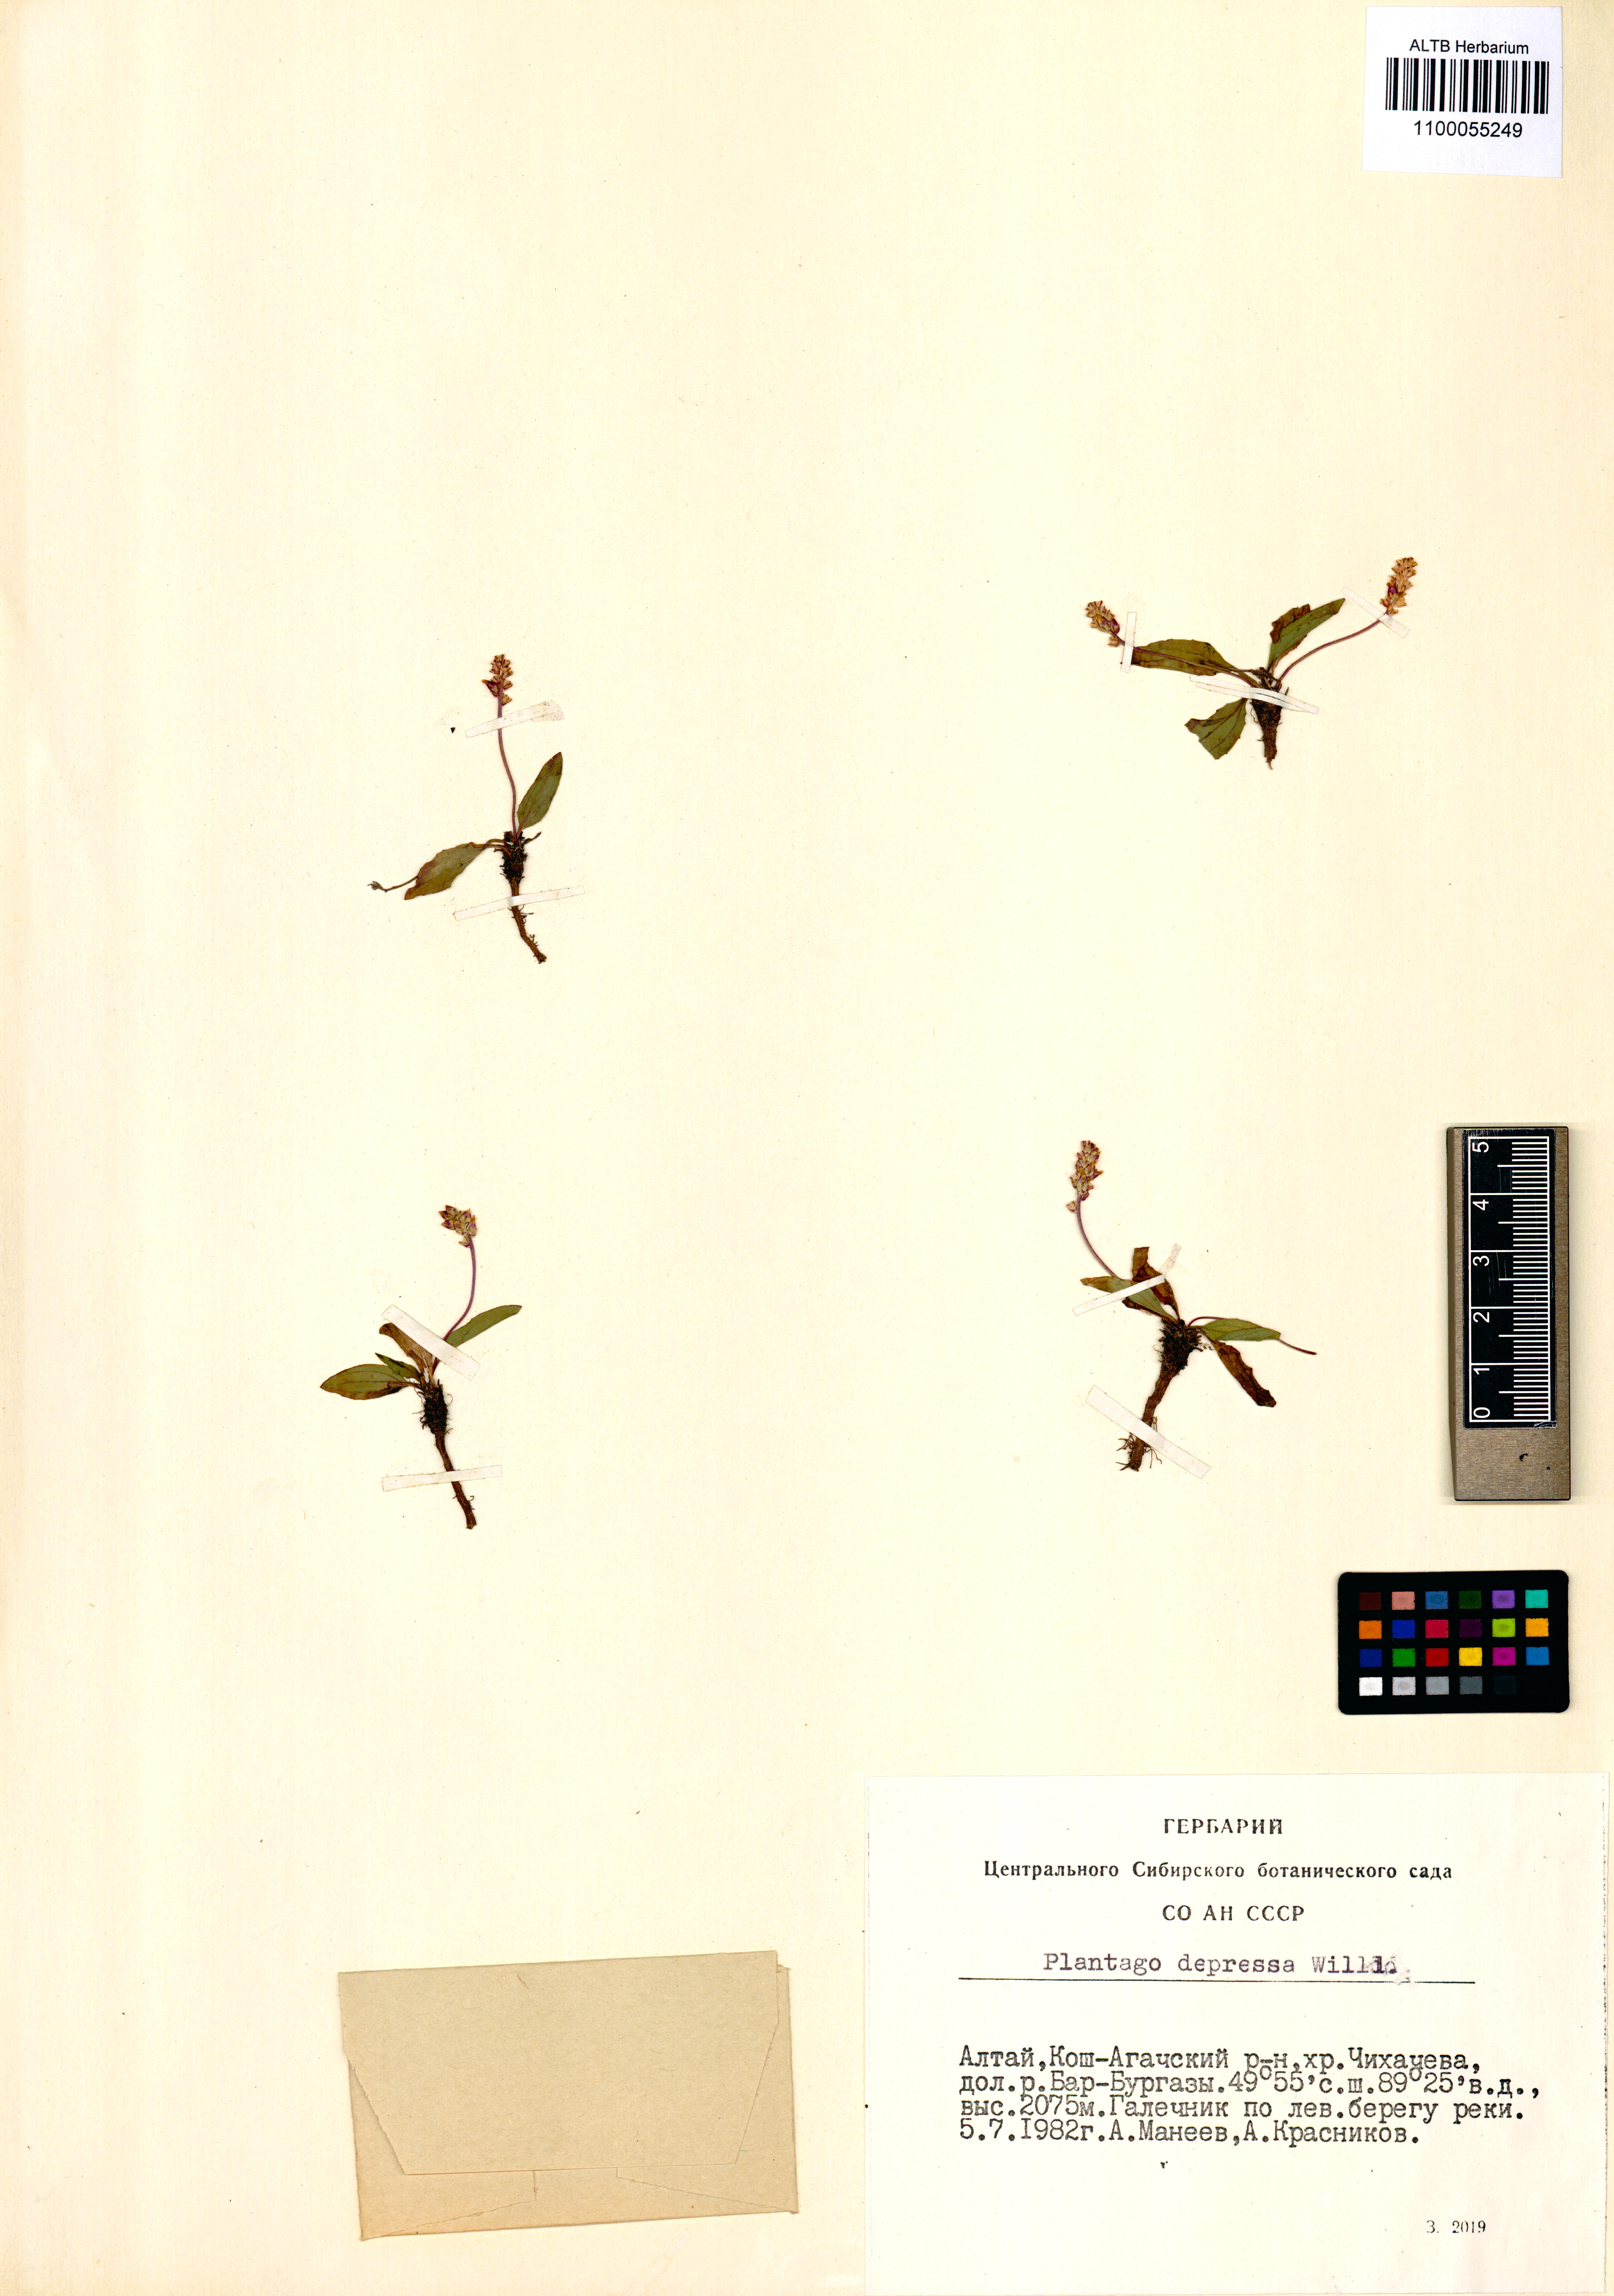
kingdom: Plantae
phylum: Tracheophyta
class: Magnoliopsida
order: Lamiales
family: Plantaginaceae
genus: Plantago
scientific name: Plantago depressa
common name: Depressed plantain
